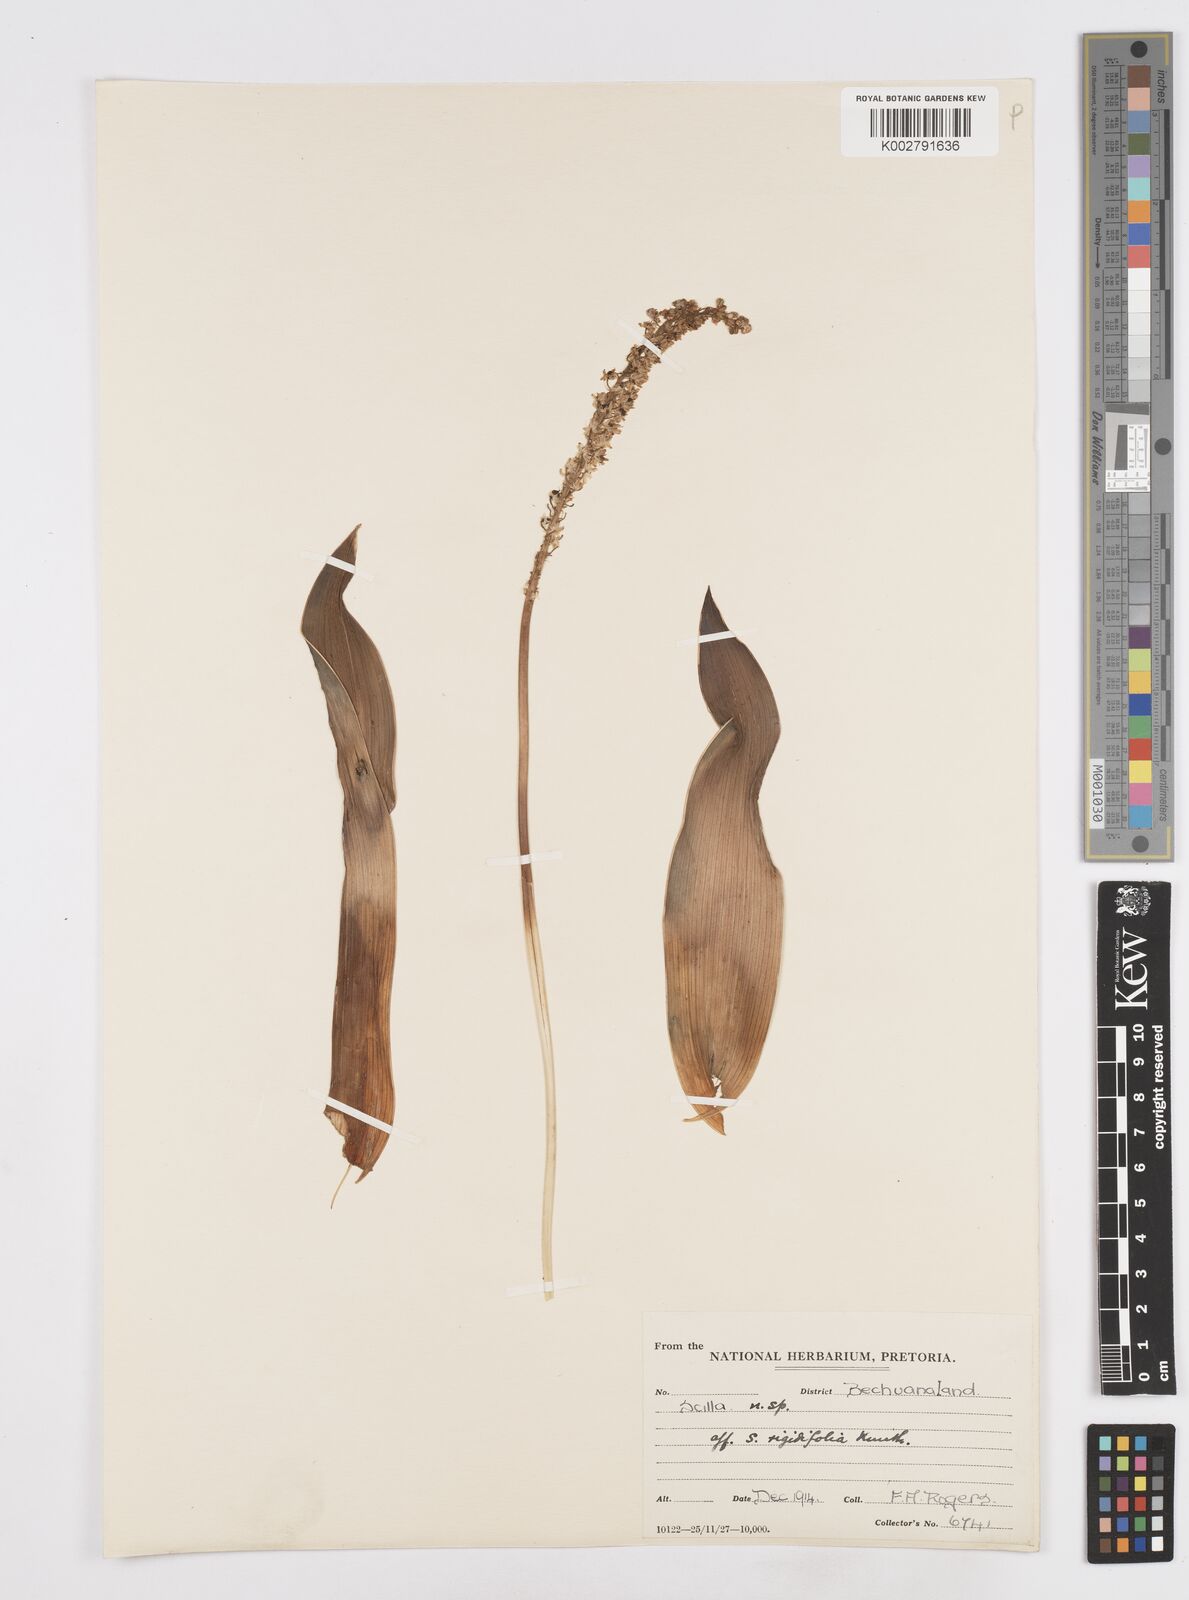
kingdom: Plantae
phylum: Tracheophyta
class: Liliopsida
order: Asparagales
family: Asparagaceae
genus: Scilla
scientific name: Scilla
